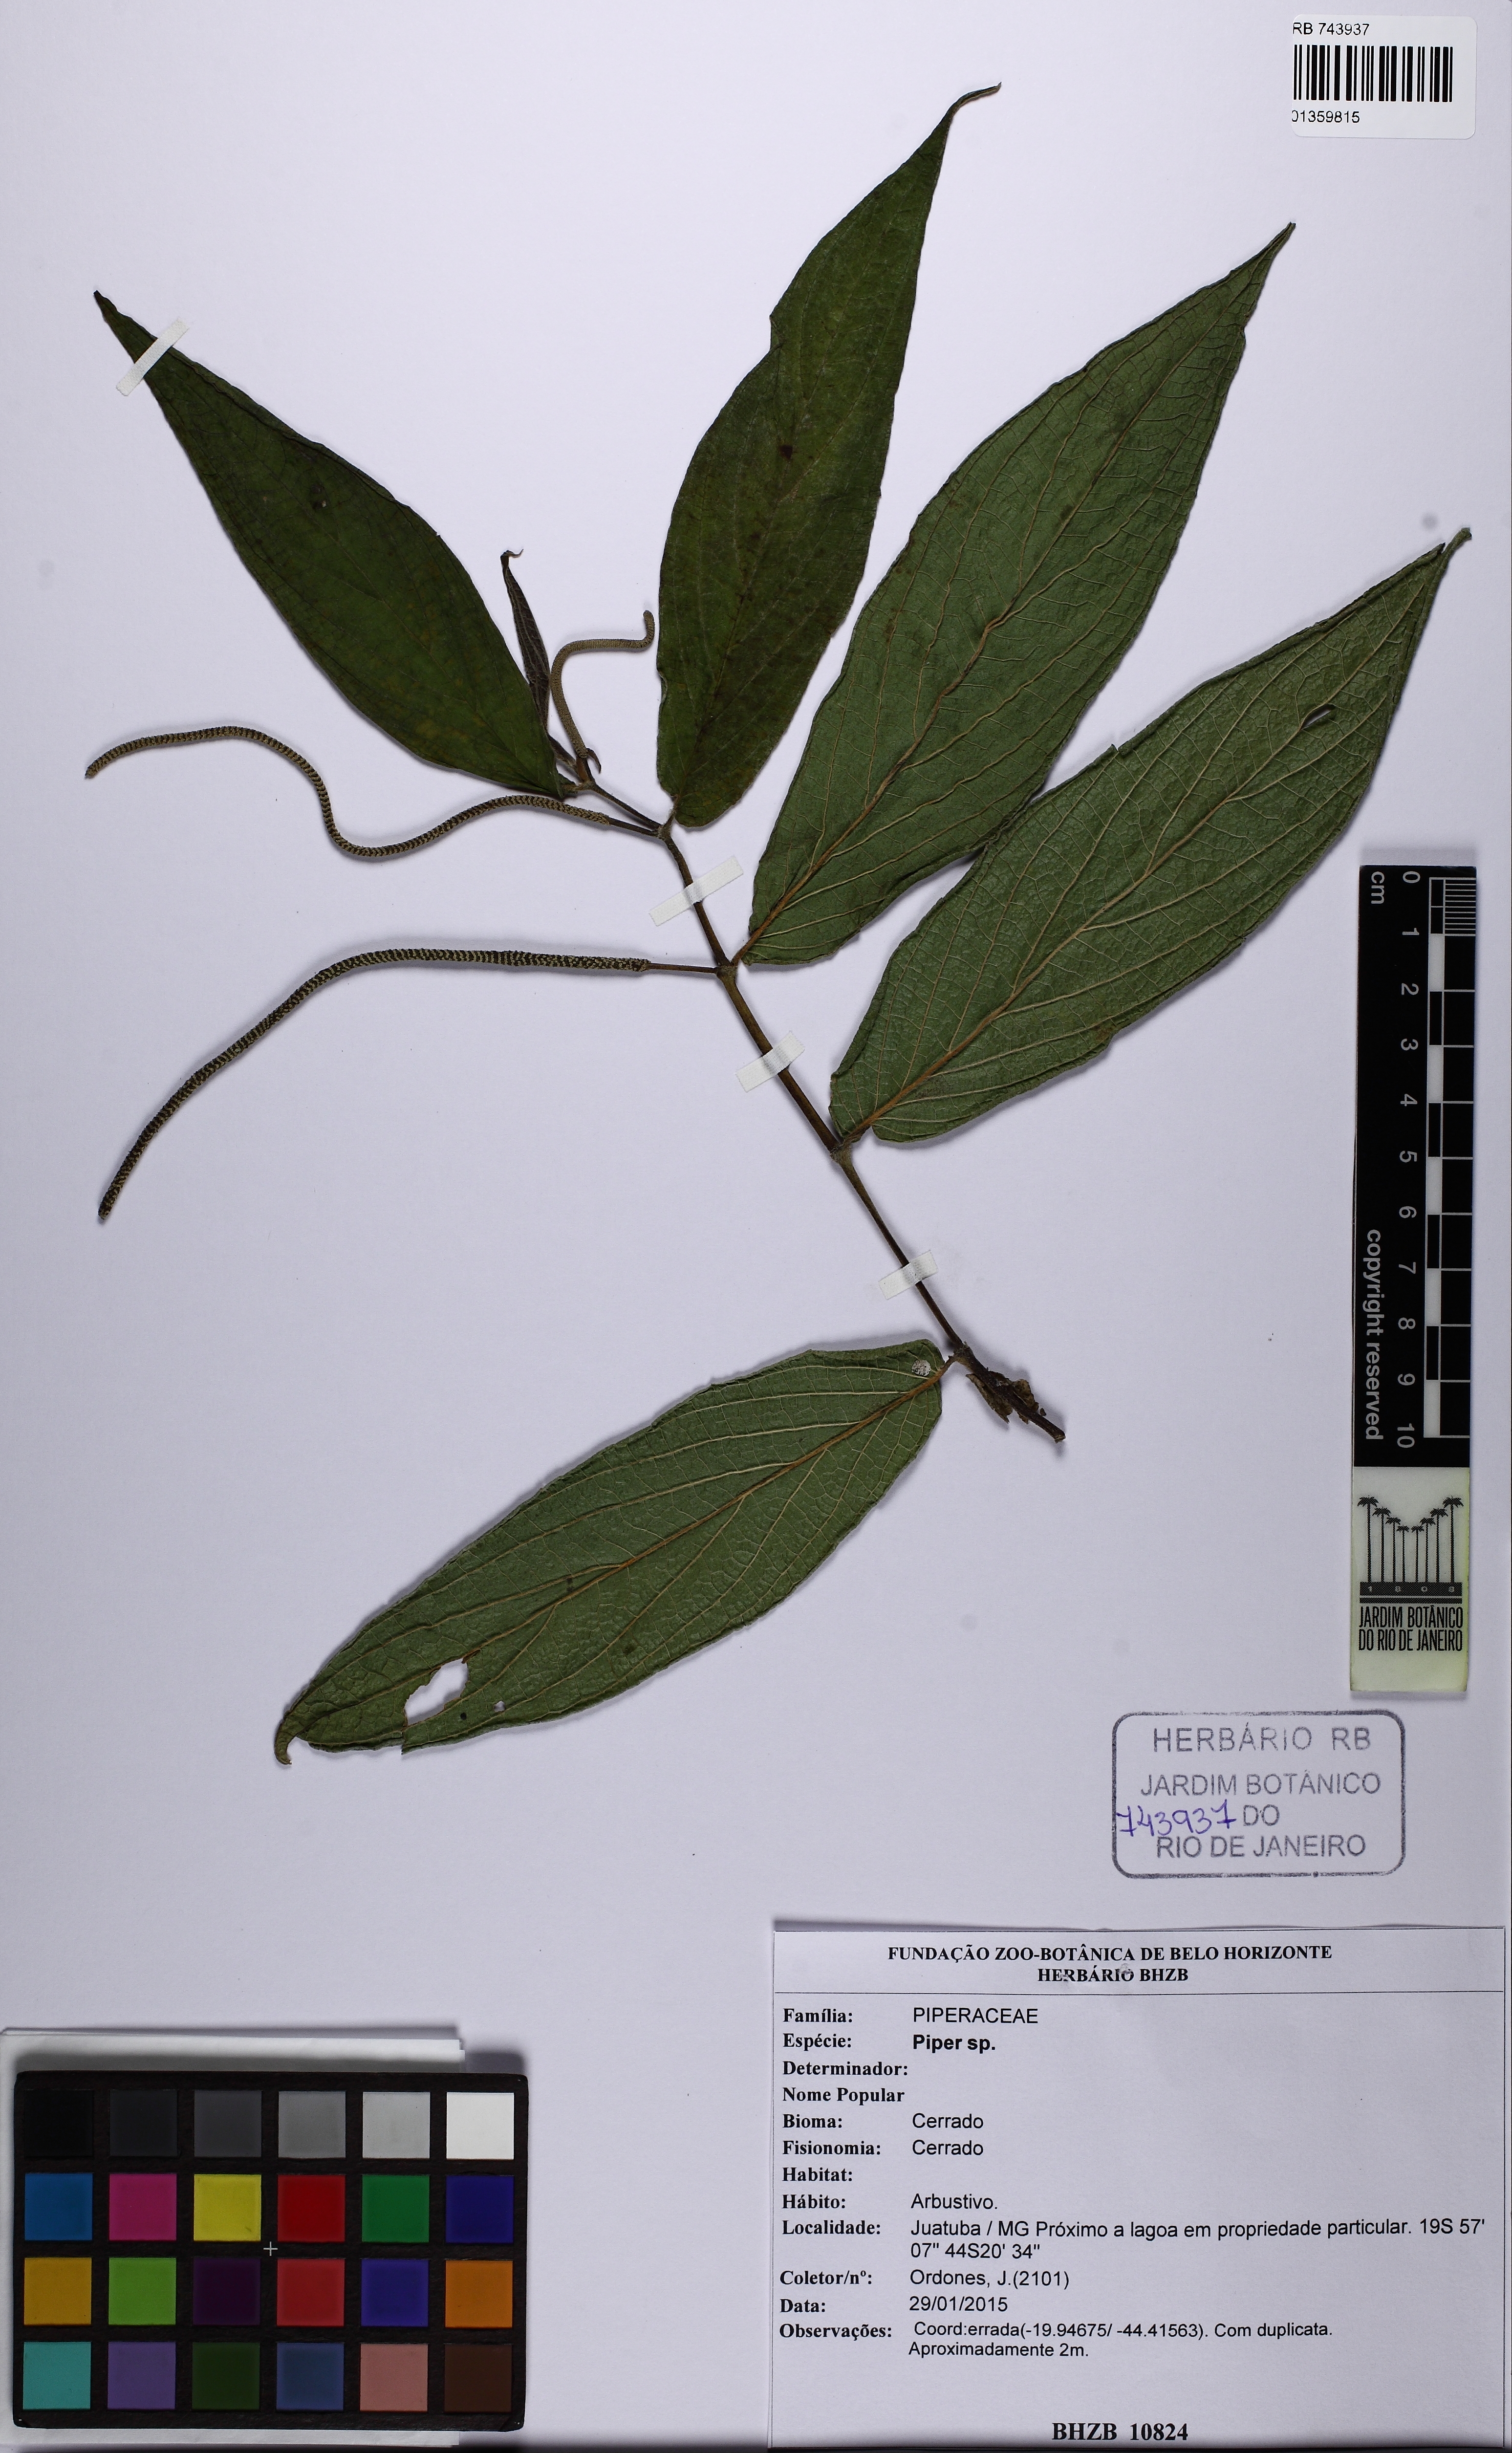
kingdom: Plantae
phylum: Tracheophyta
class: Magnoliopsida
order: Piperales
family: Piperaceae
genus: Piper
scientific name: Piper aduncum
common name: Spiked pepper
